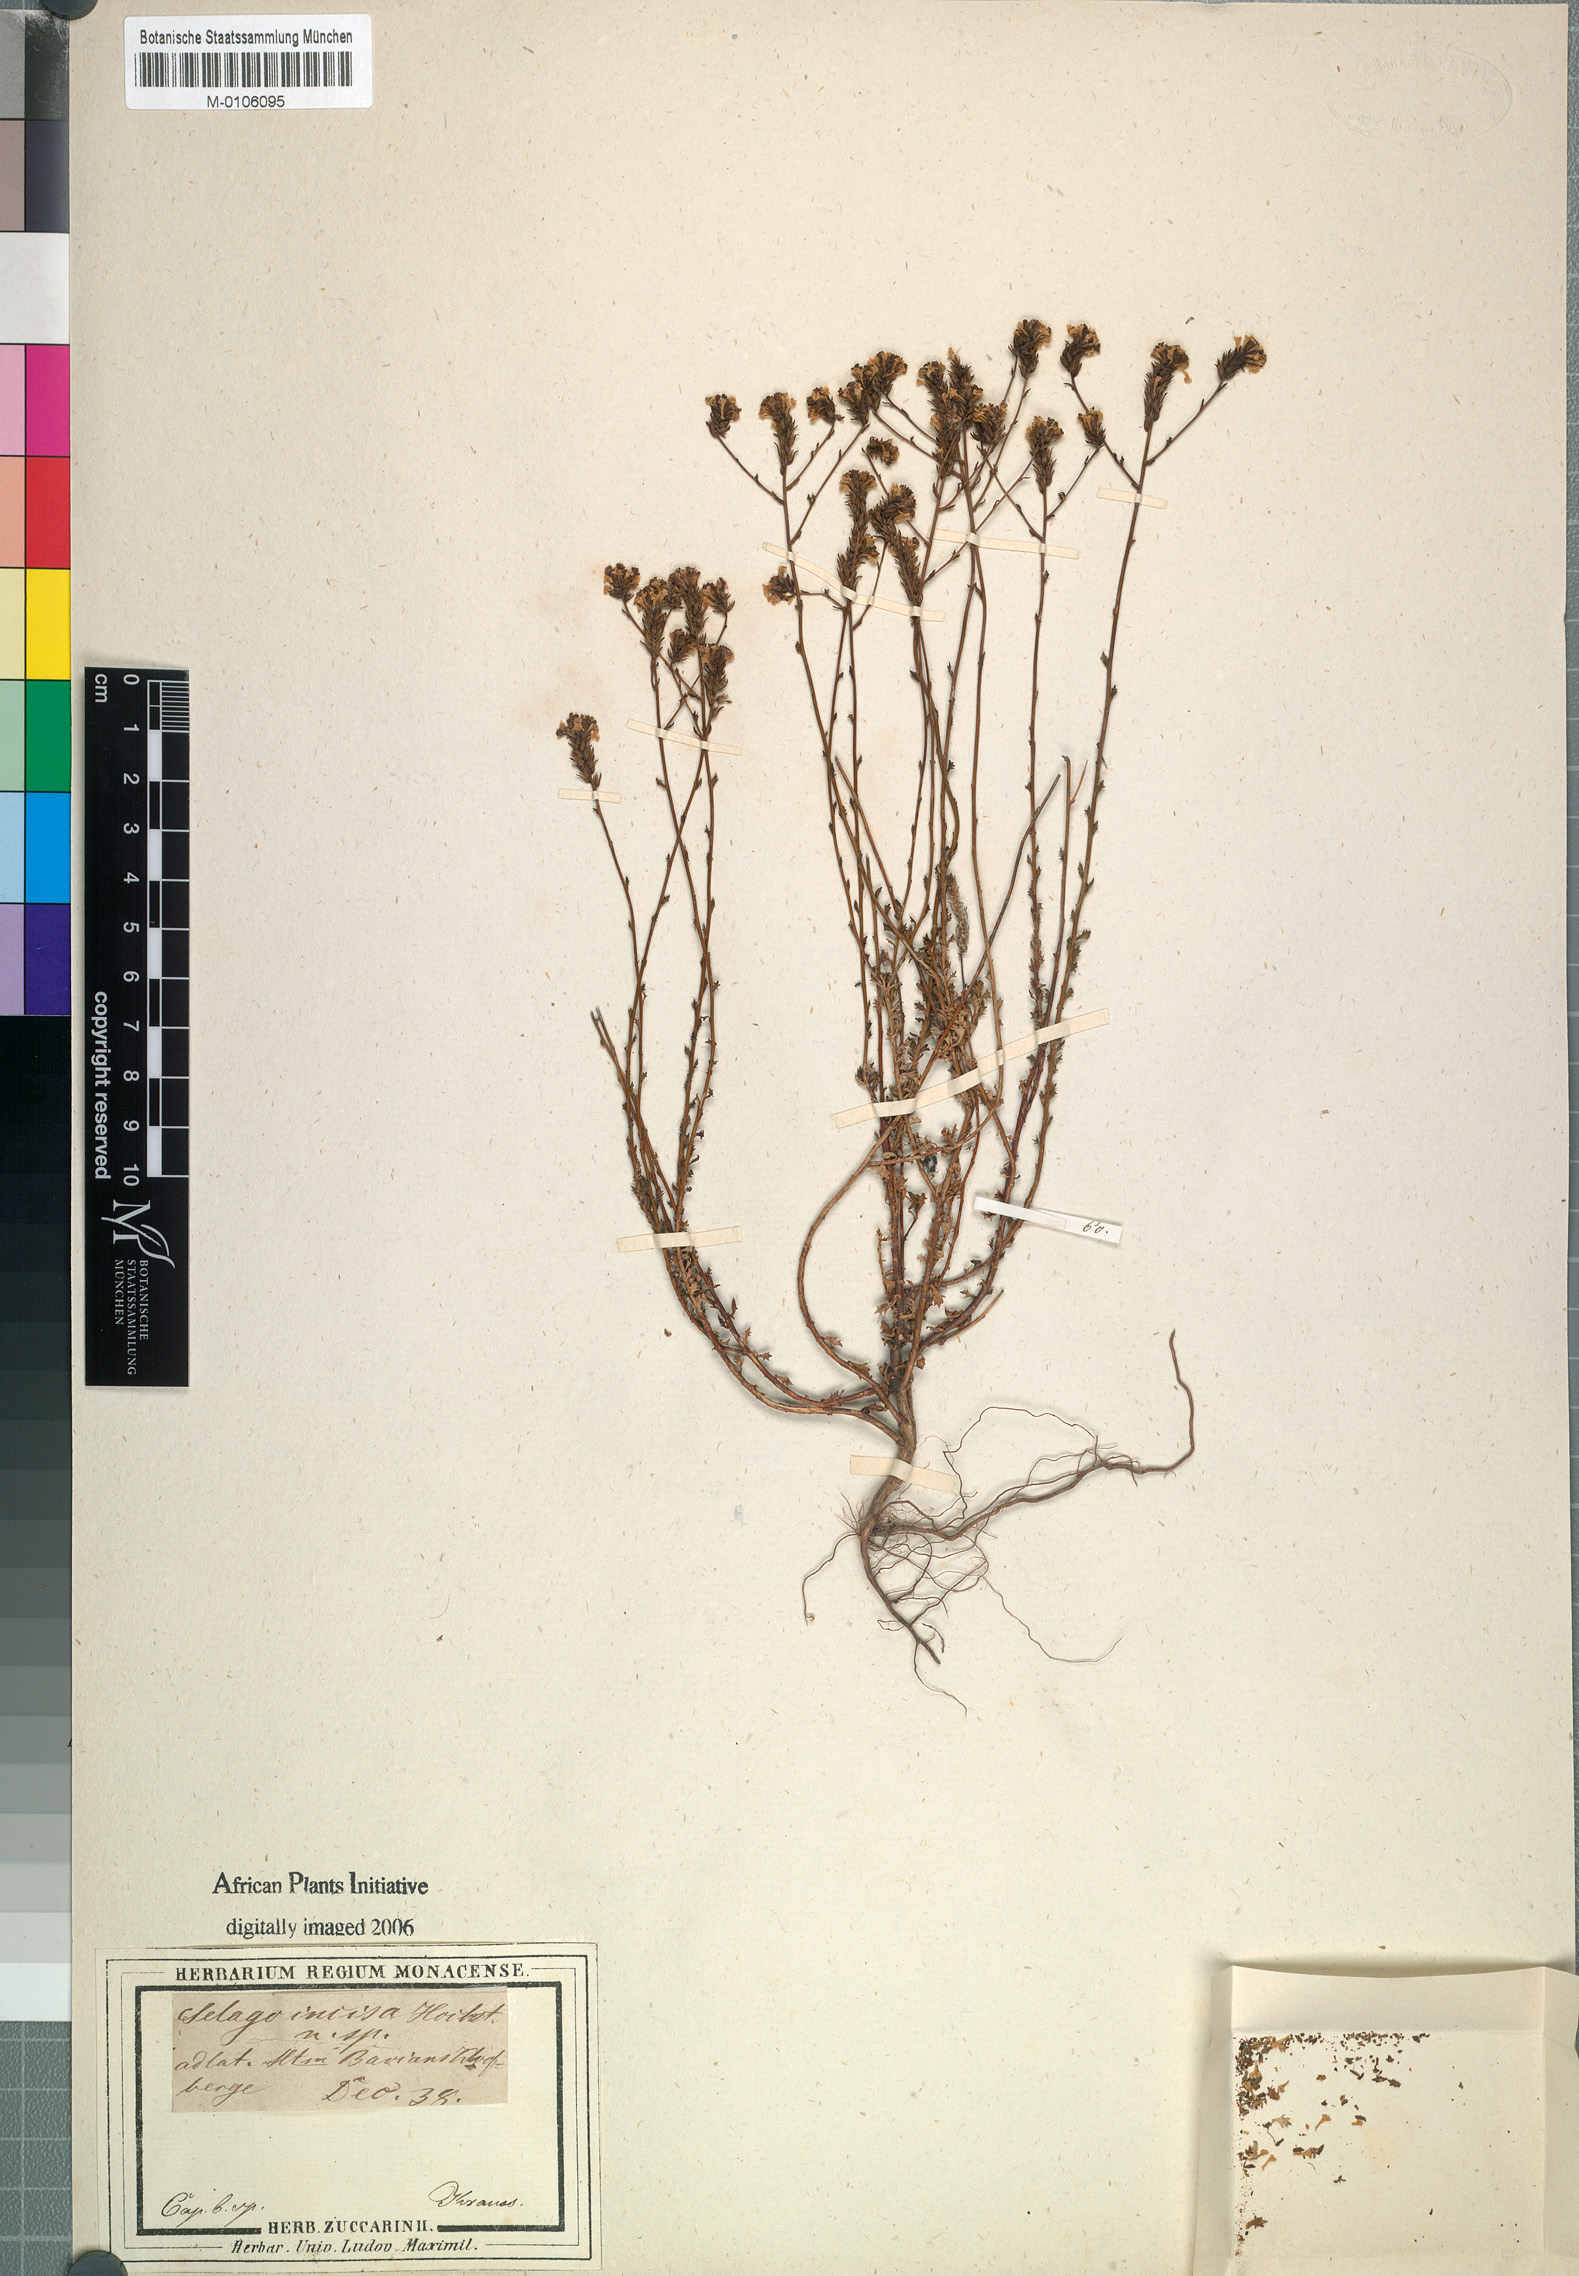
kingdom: Plantae
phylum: Tracheophyta
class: Magnoliopsida
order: Lamiales
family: Scrophulariaceae
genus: Pseudoselago
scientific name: Pseudoselago ascendens
